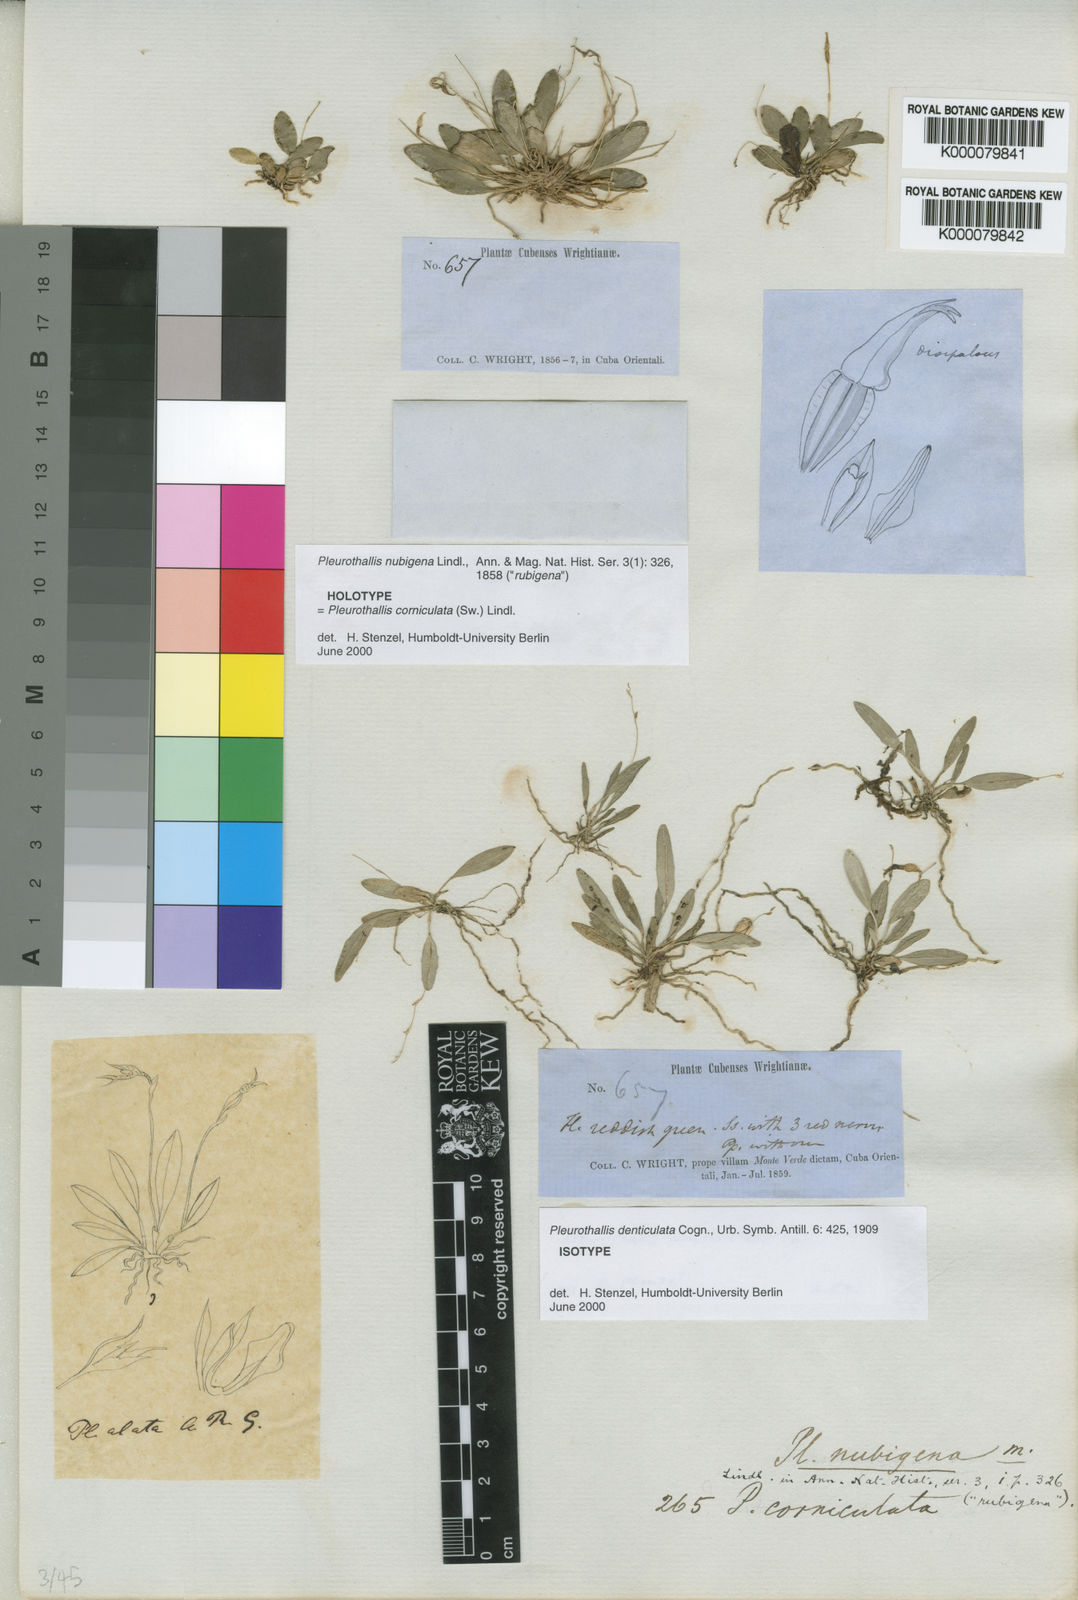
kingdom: Plantae
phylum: Tracheophyta
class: Liliopsida
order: Asparagales
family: Orchidaceae
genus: Specklinia
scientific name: Specklinia corniculata
